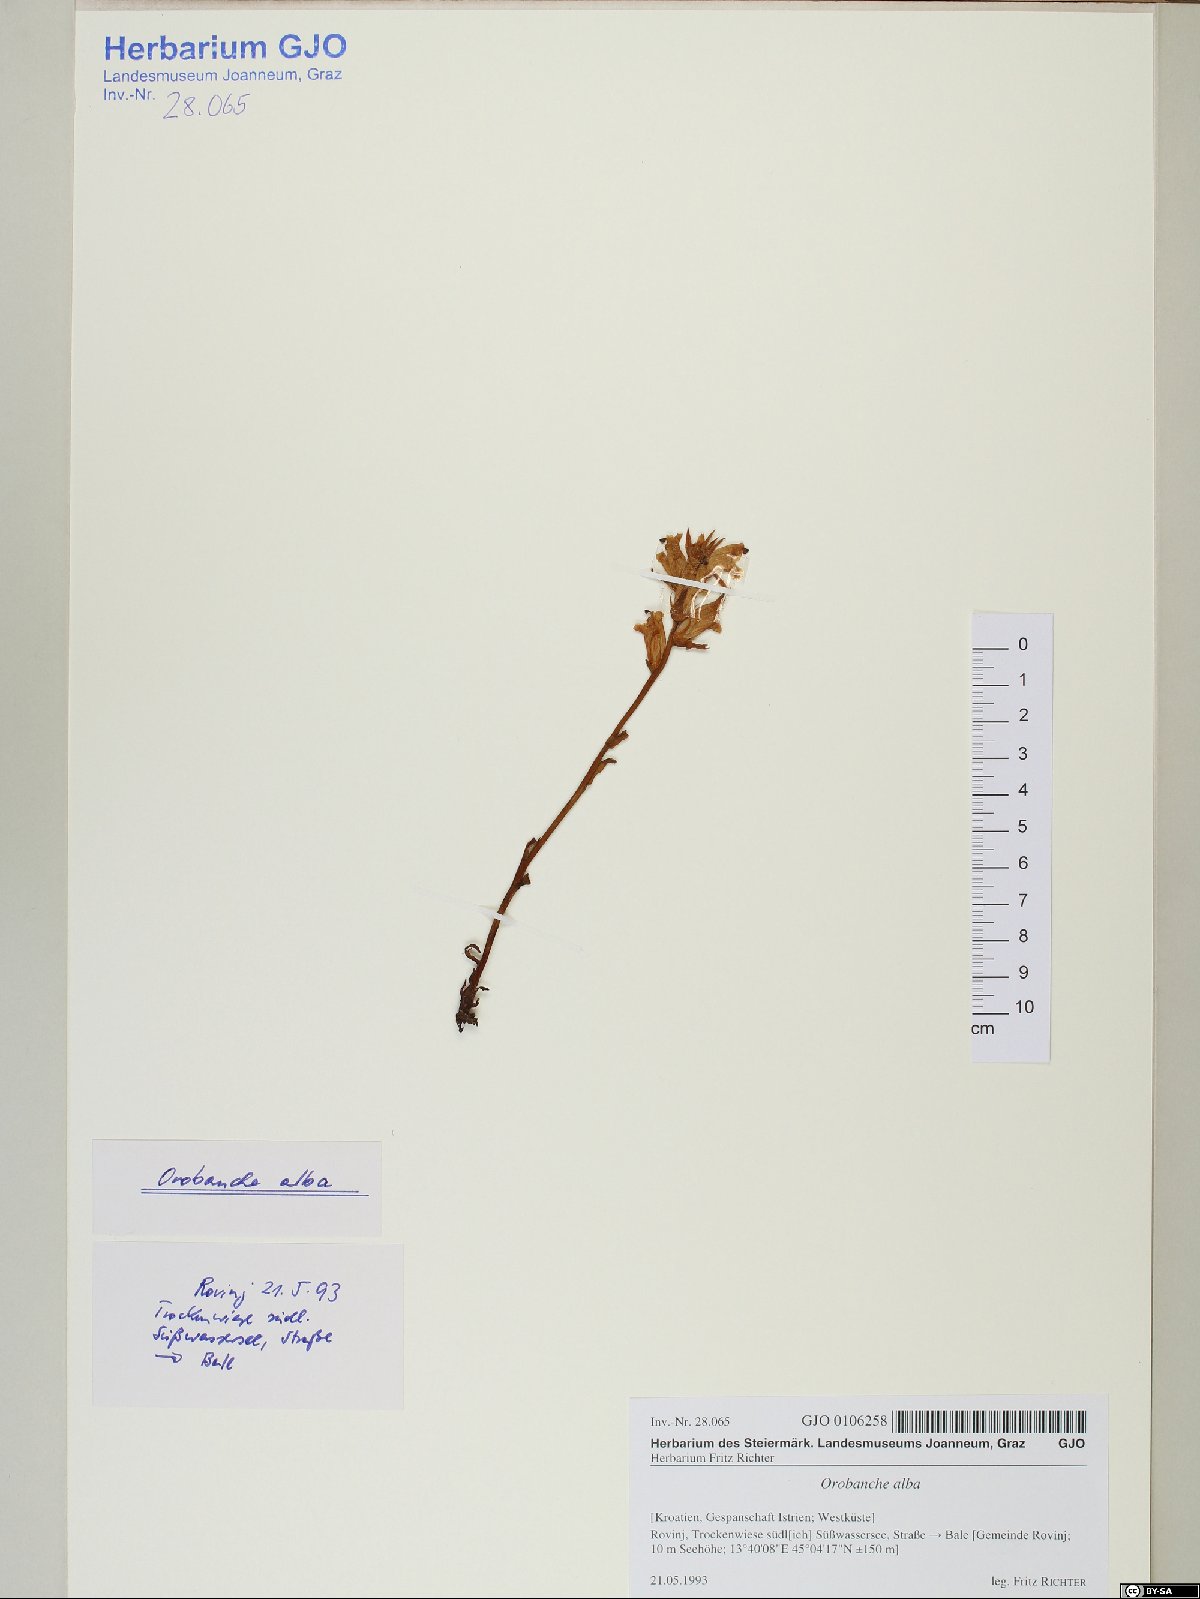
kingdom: Plantae
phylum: Tracheophyta
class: Magnoliopsida
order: Lamiales
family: Orobanchaceae
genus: Orobanche
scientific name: Orobanche alba
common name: Thyme broomrape
